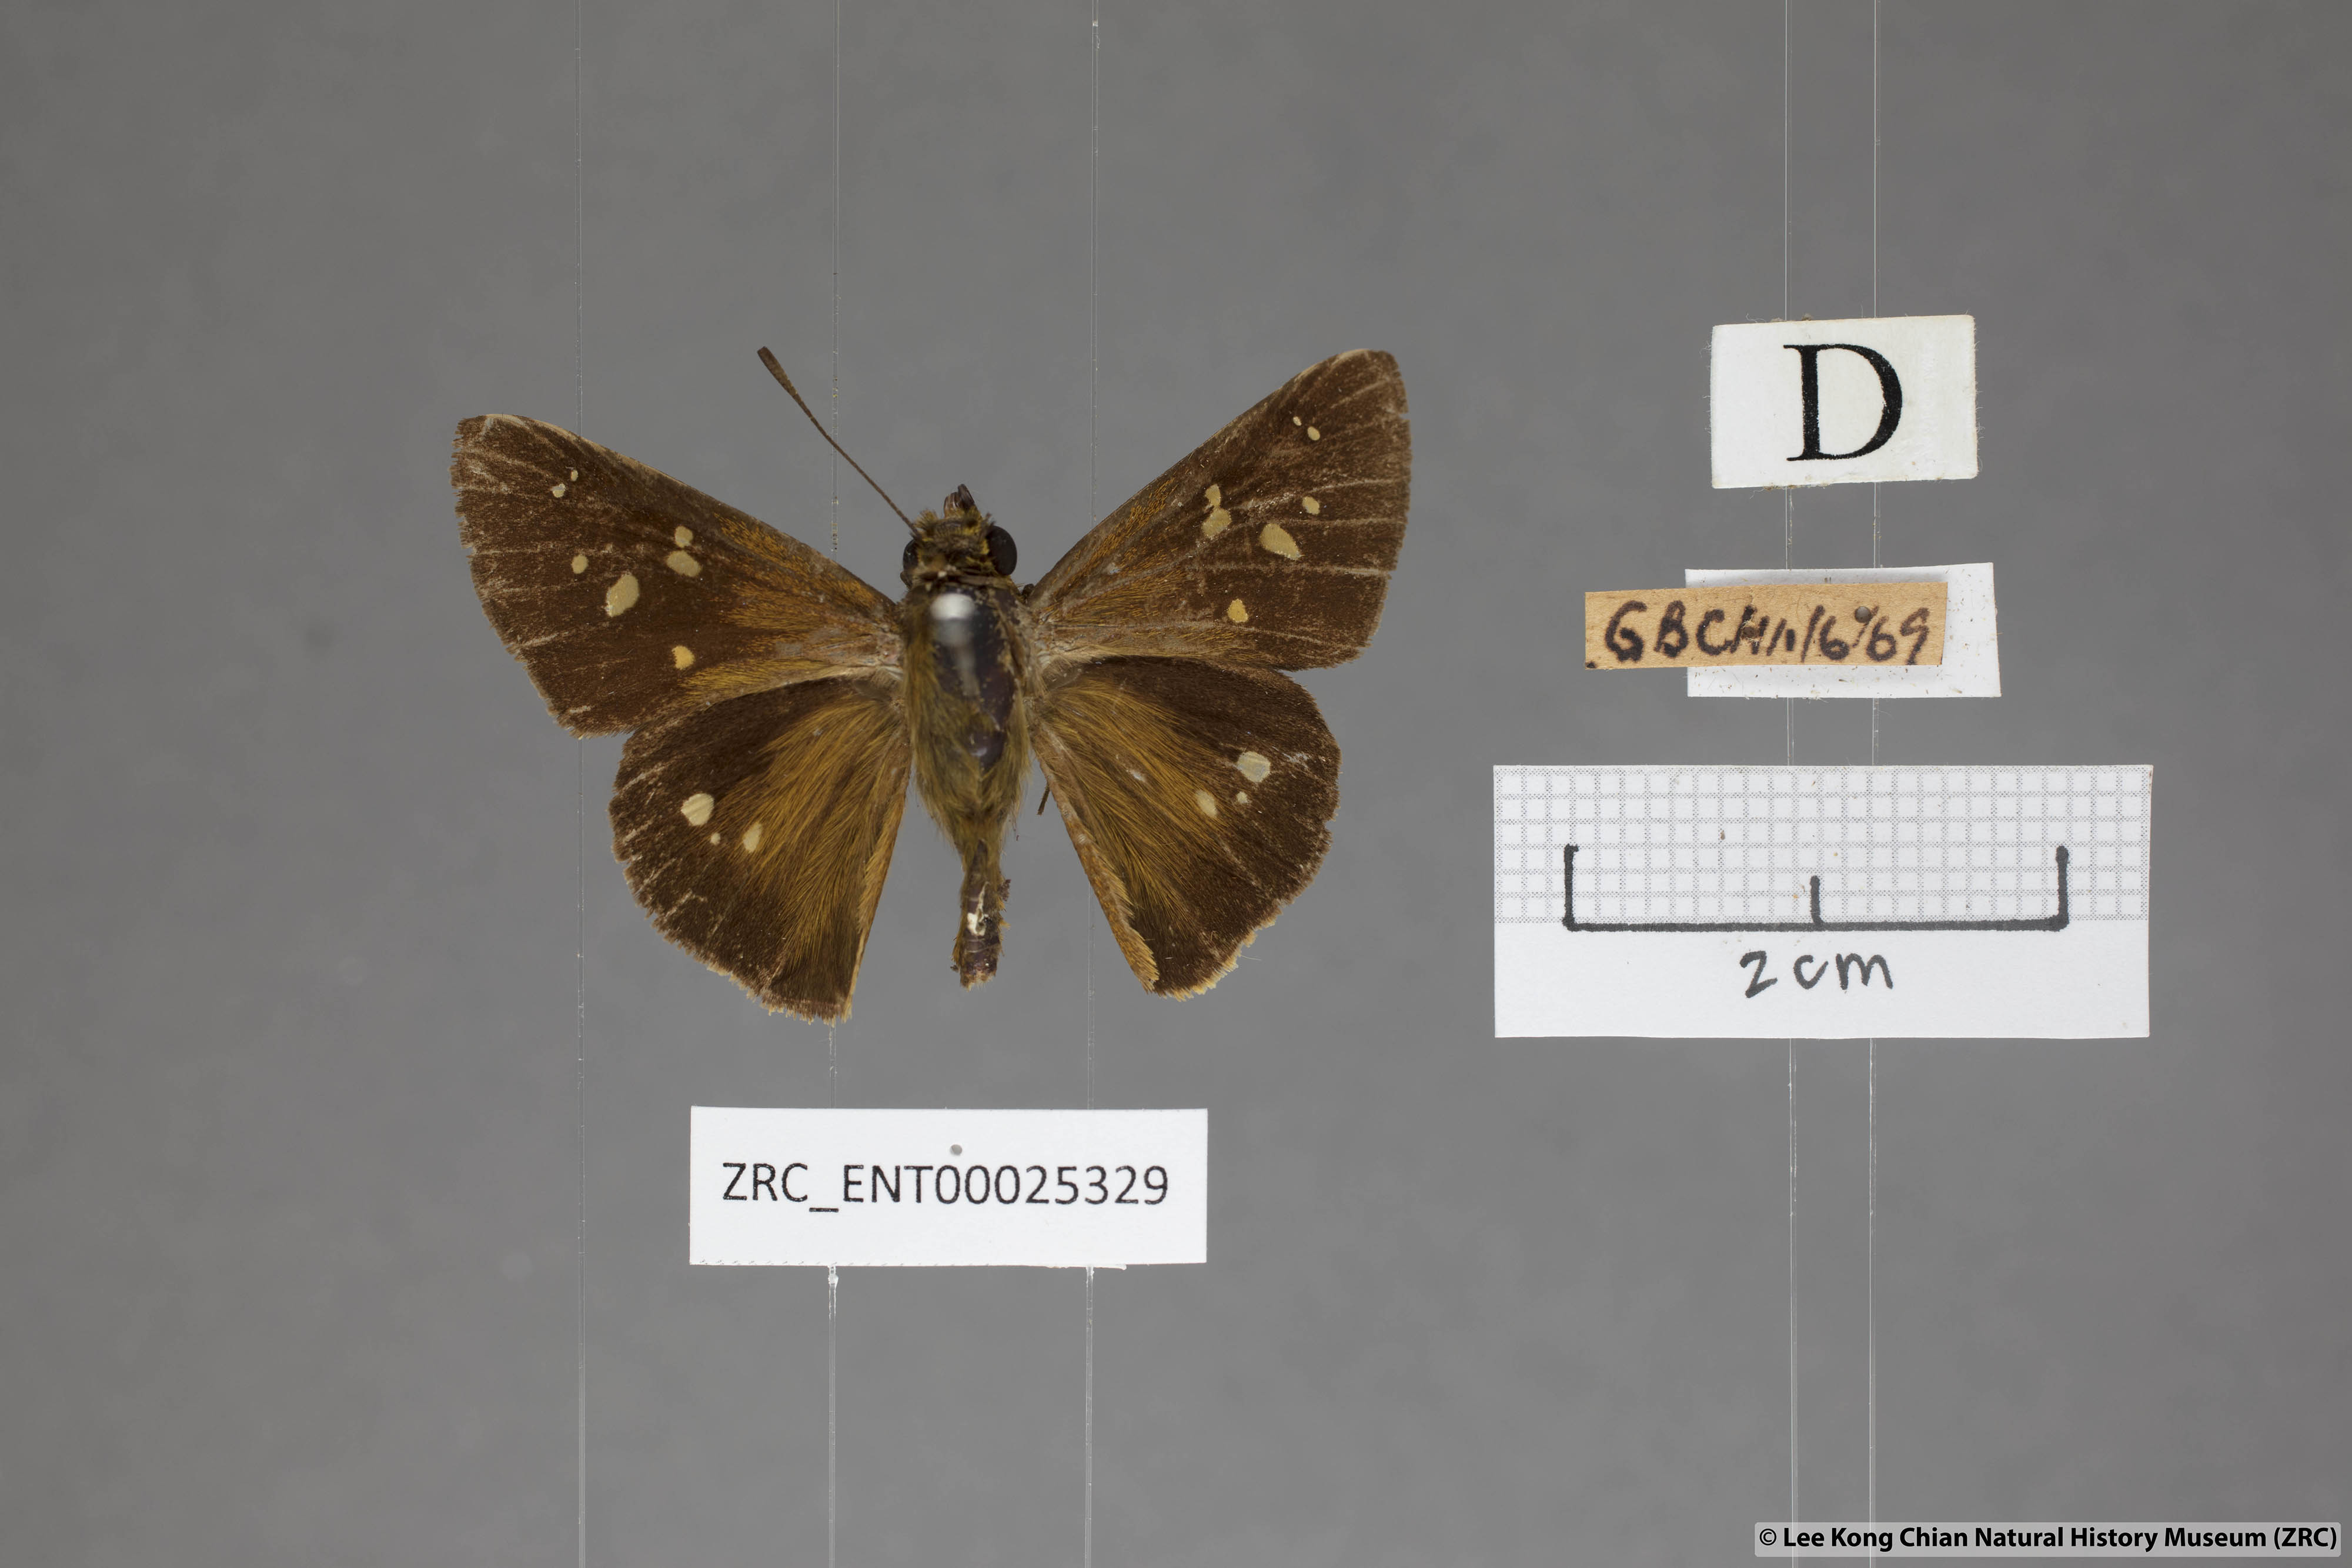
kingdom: Animalia
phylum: Arthropoda
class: Insecta
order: Lepidoptera
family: Hesperiidae
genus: Polytremis
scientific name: Polytremis eltola
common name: Yellow-spot swift
